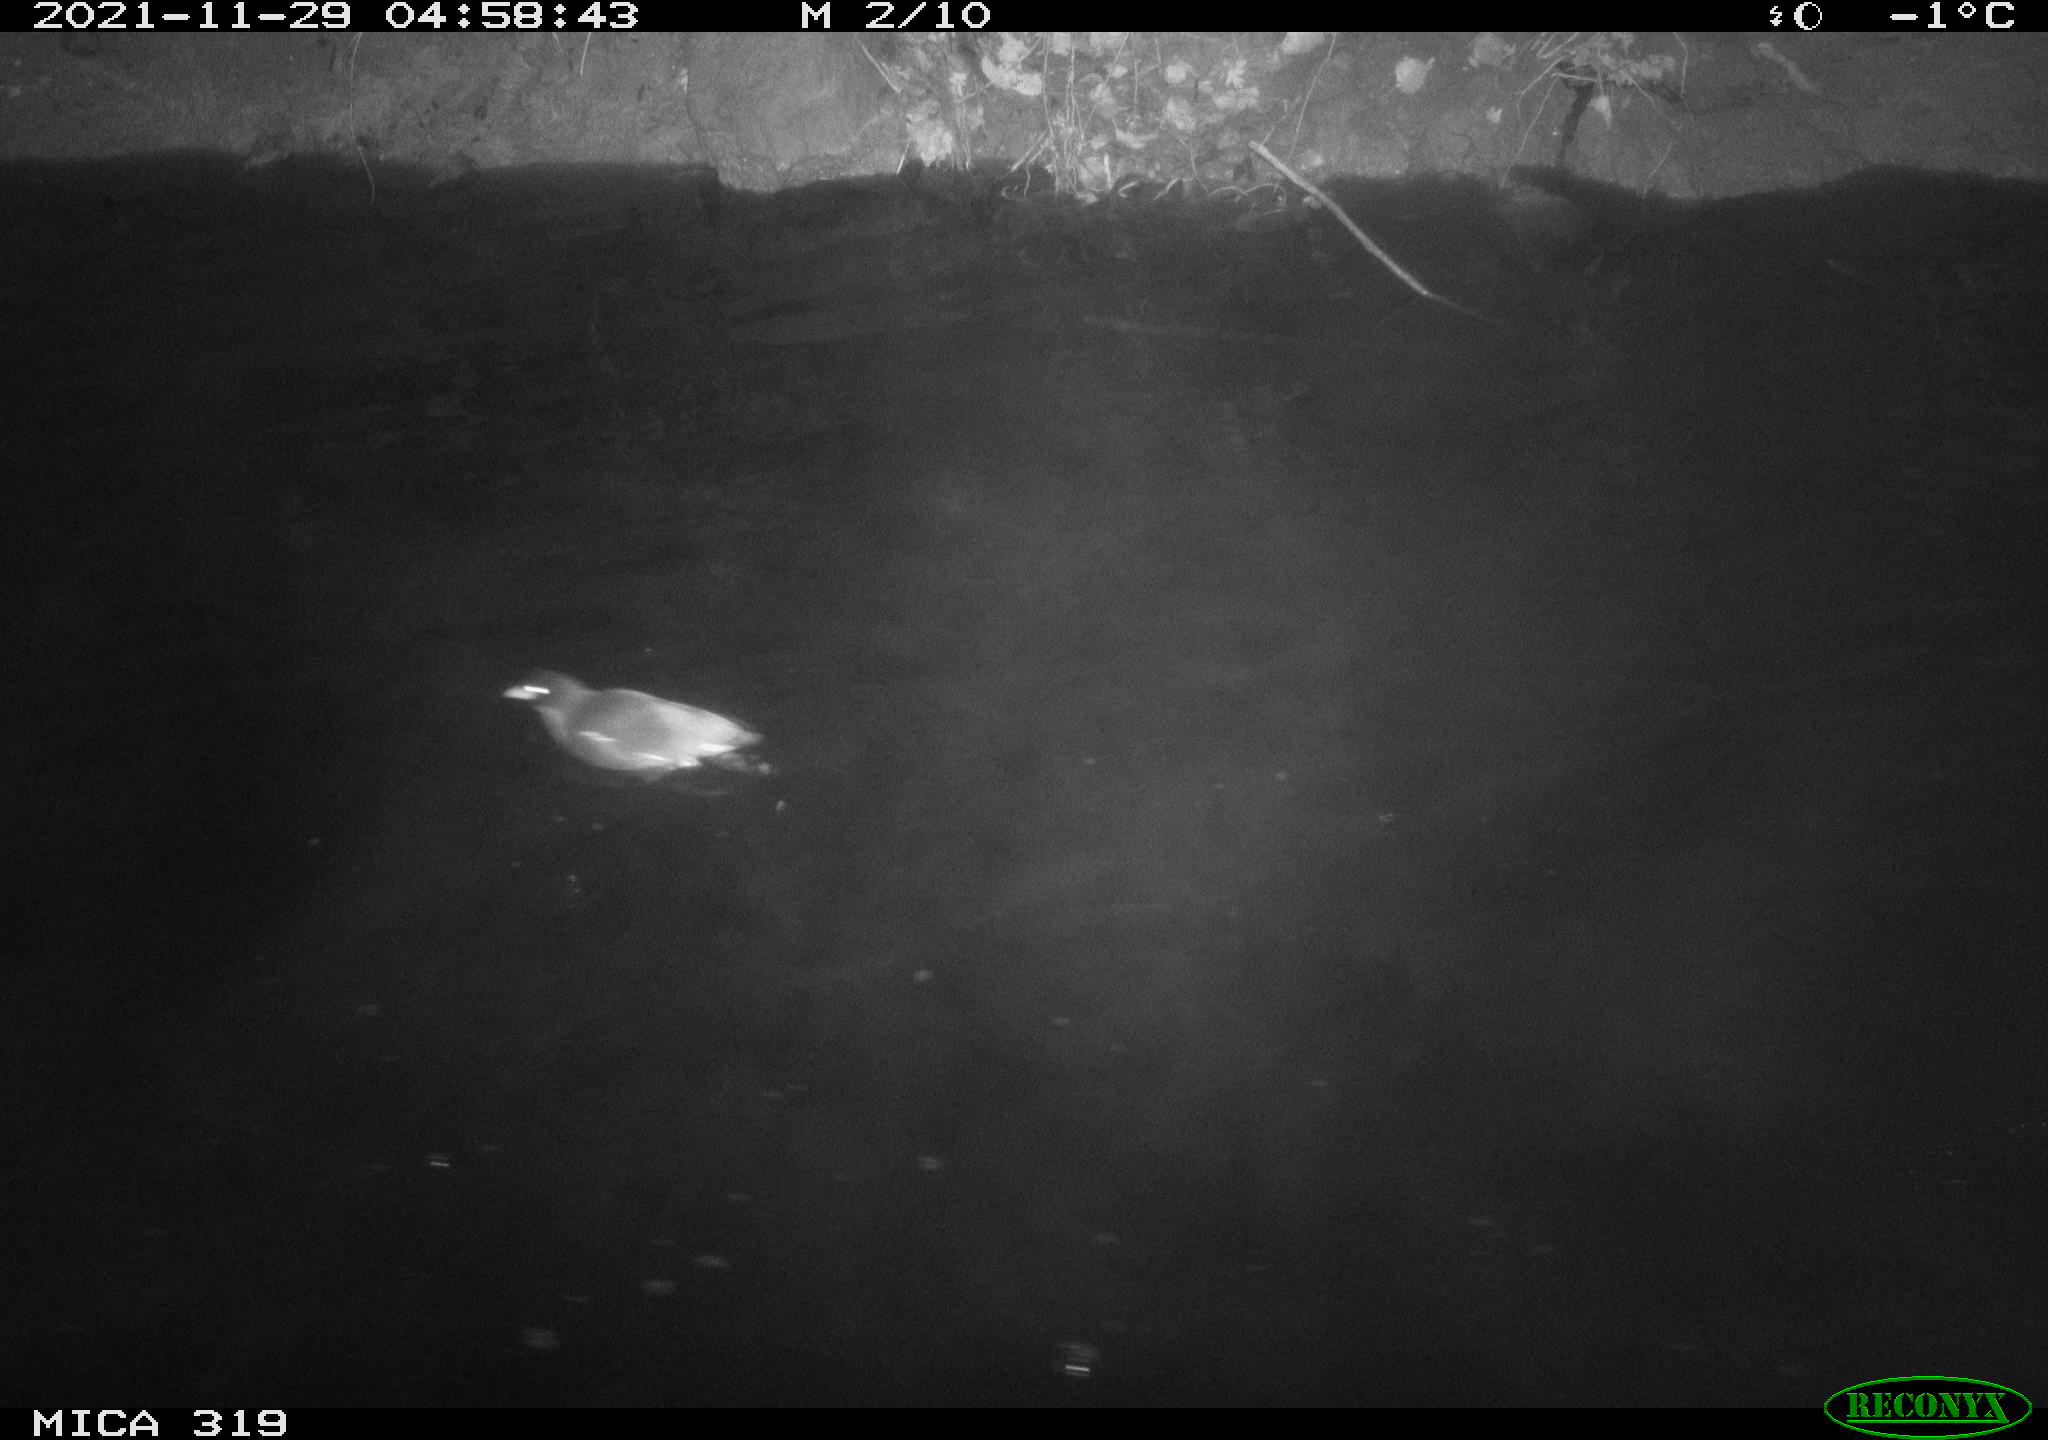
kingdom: Animalia
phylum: Chordata
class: Aves
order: Gruiformes
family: Rallidae
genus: Gallinula
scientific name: Gallinula chloropus
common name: Common moorhen
